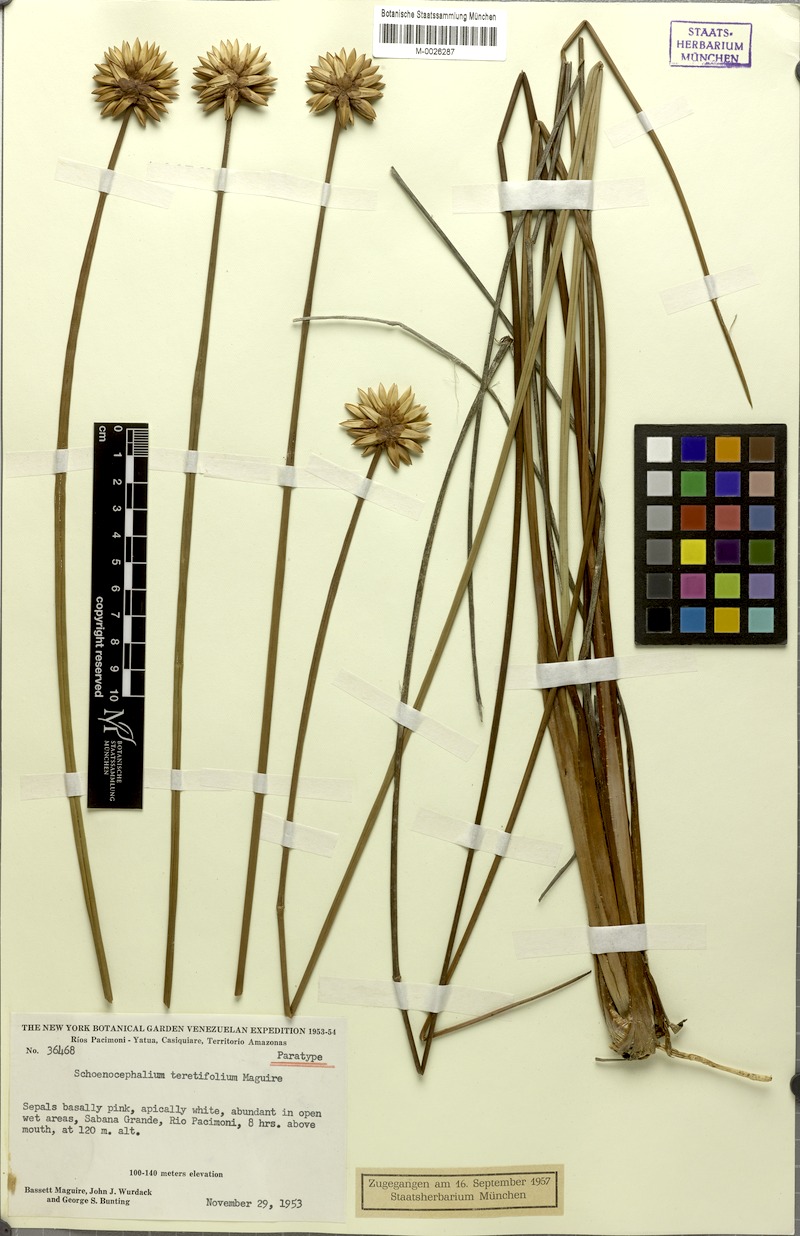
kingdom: Plantae
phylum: Tracheophyta
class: Liliopsida
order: Poales
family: Rapateaceae
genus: Schoenocephalium
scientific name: Schoenocephalium teretifolium
